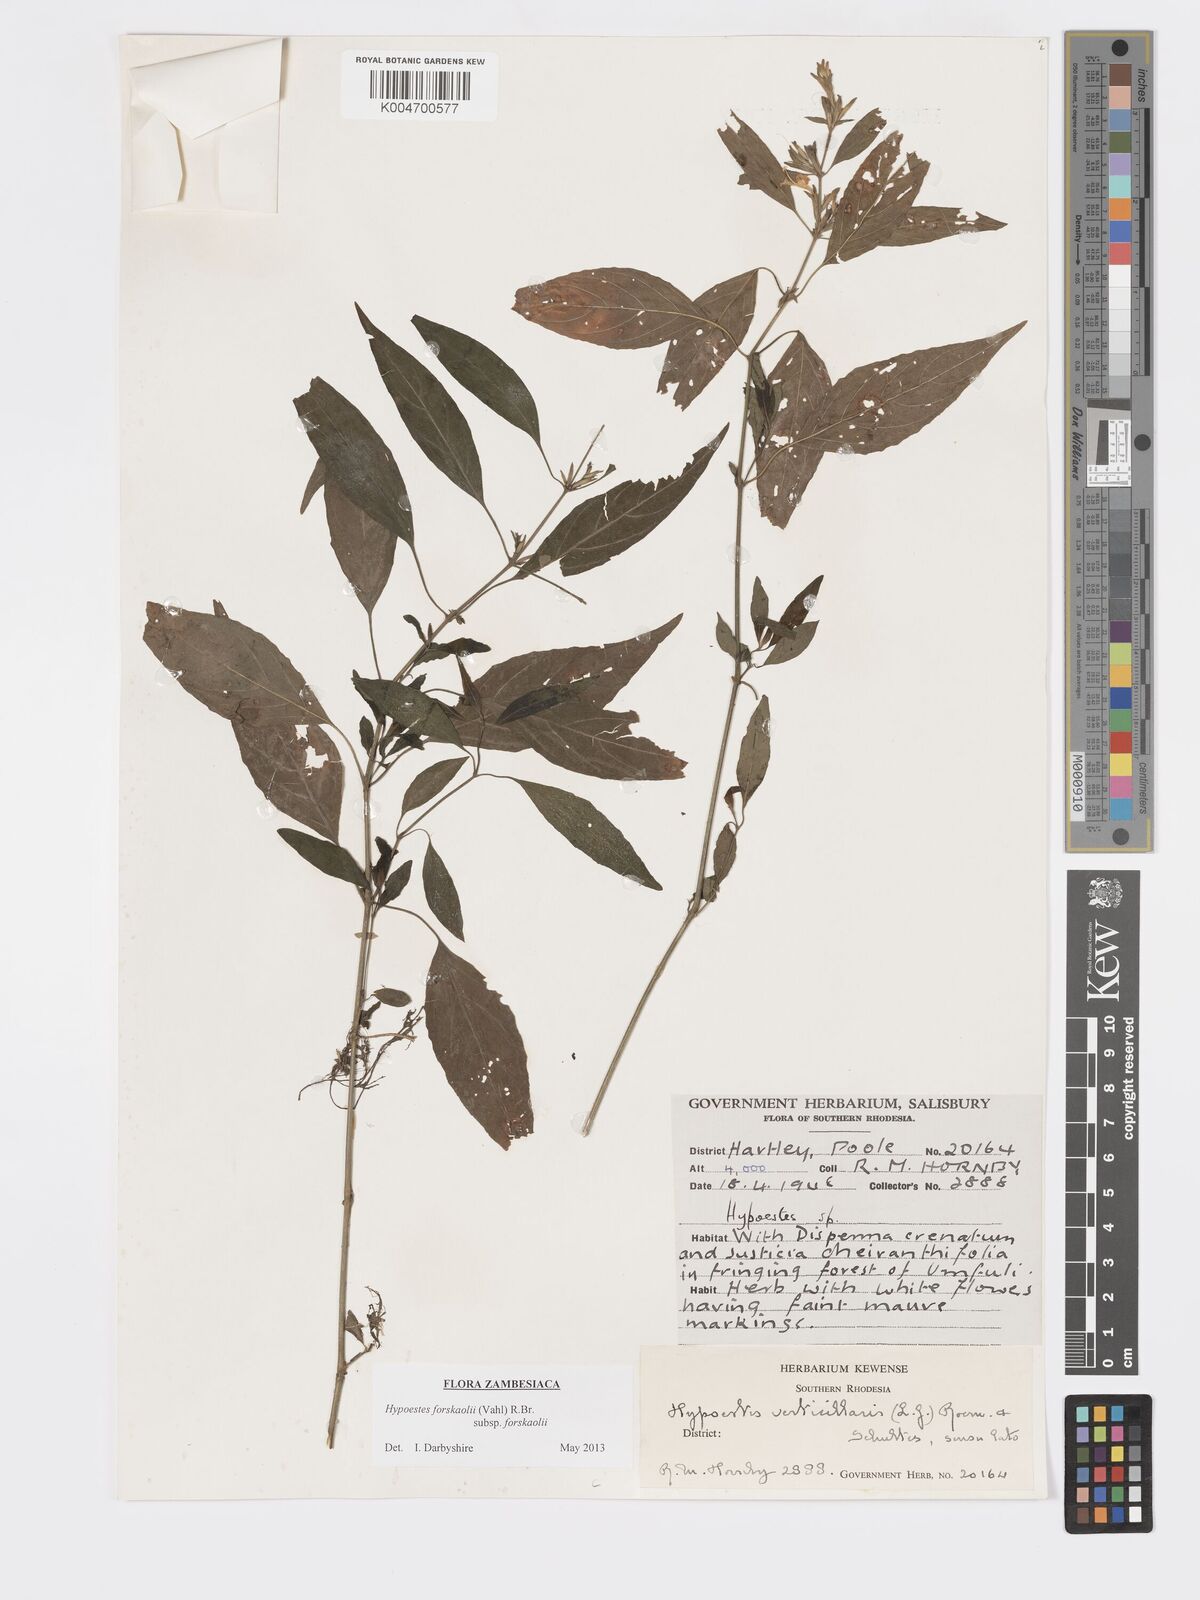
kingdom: Plantae
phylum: Tracheophyta
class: Magnoliopsida
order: Lamiales
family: Acanthaceae
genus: Hypoestes
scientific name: Hypoestes forskaolii
